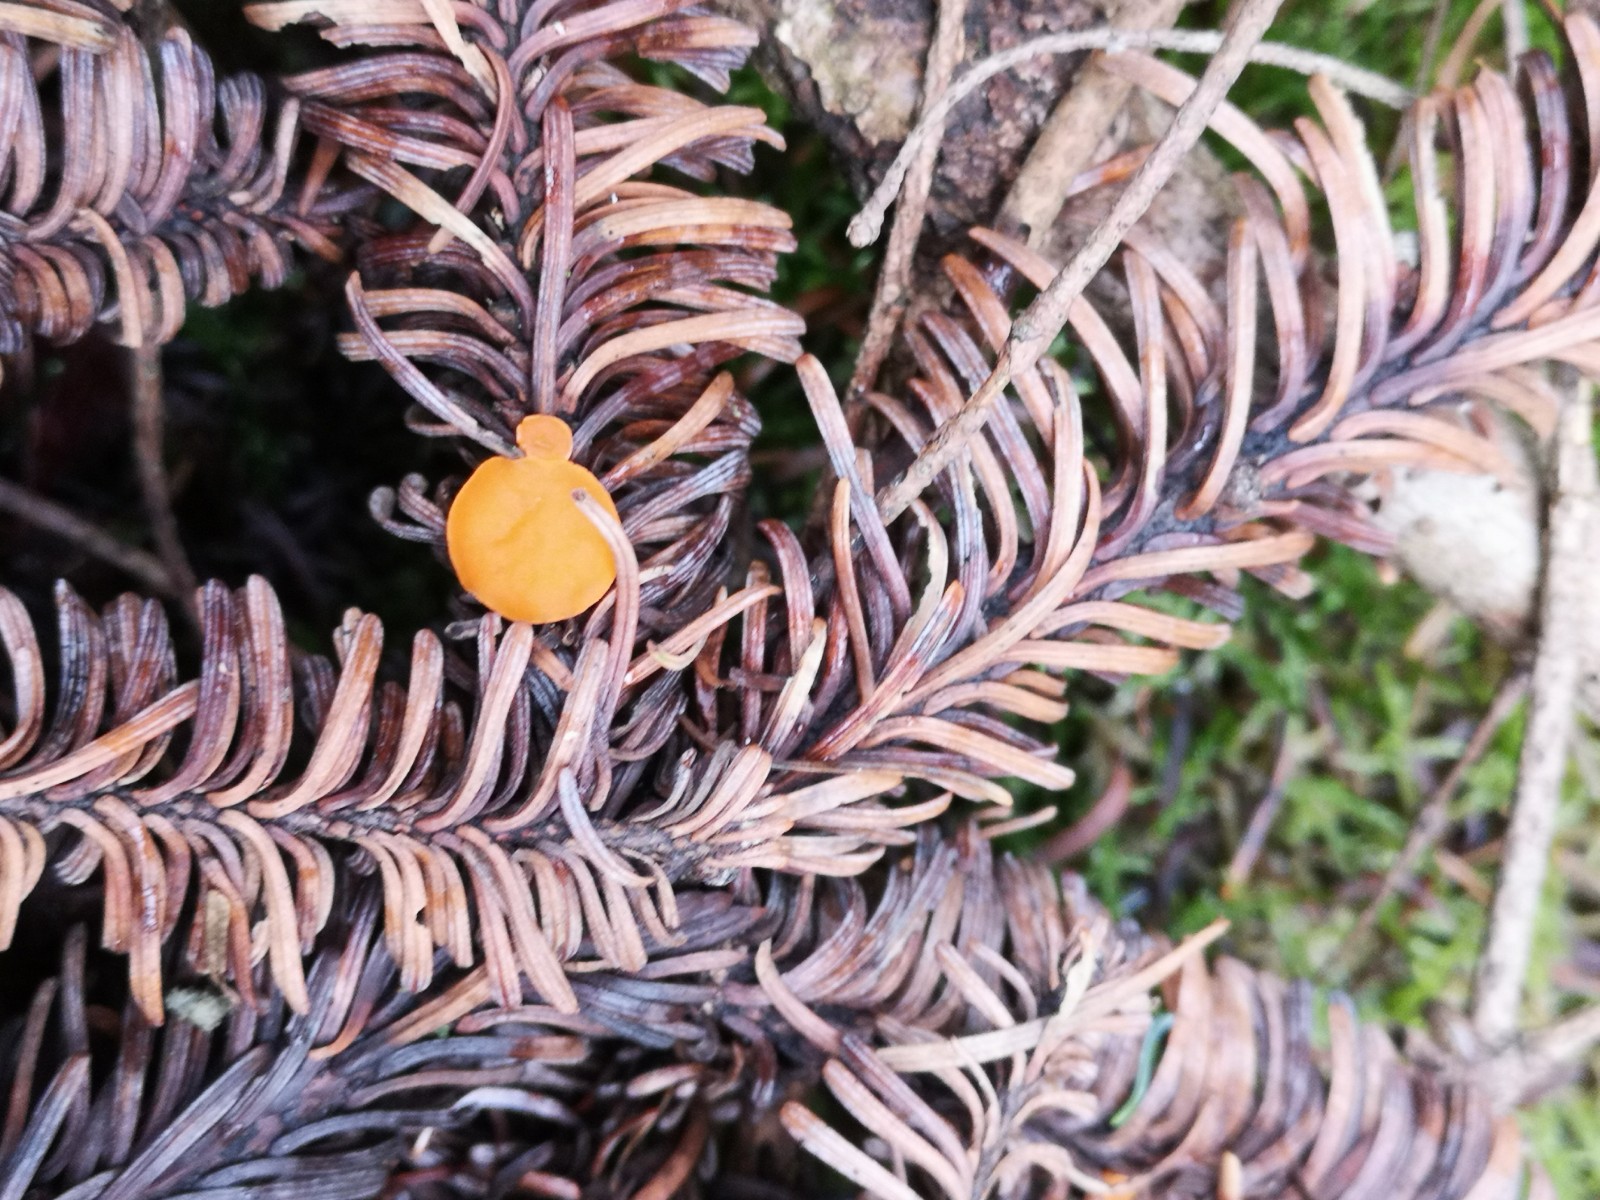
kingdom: Fungi
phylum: Ascomycota
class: Pezizomycetes
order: Pezizales
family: Sarcoscyphaceae
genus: Pithya
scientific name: Pithya vulgaris
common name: stor dukatbæger
